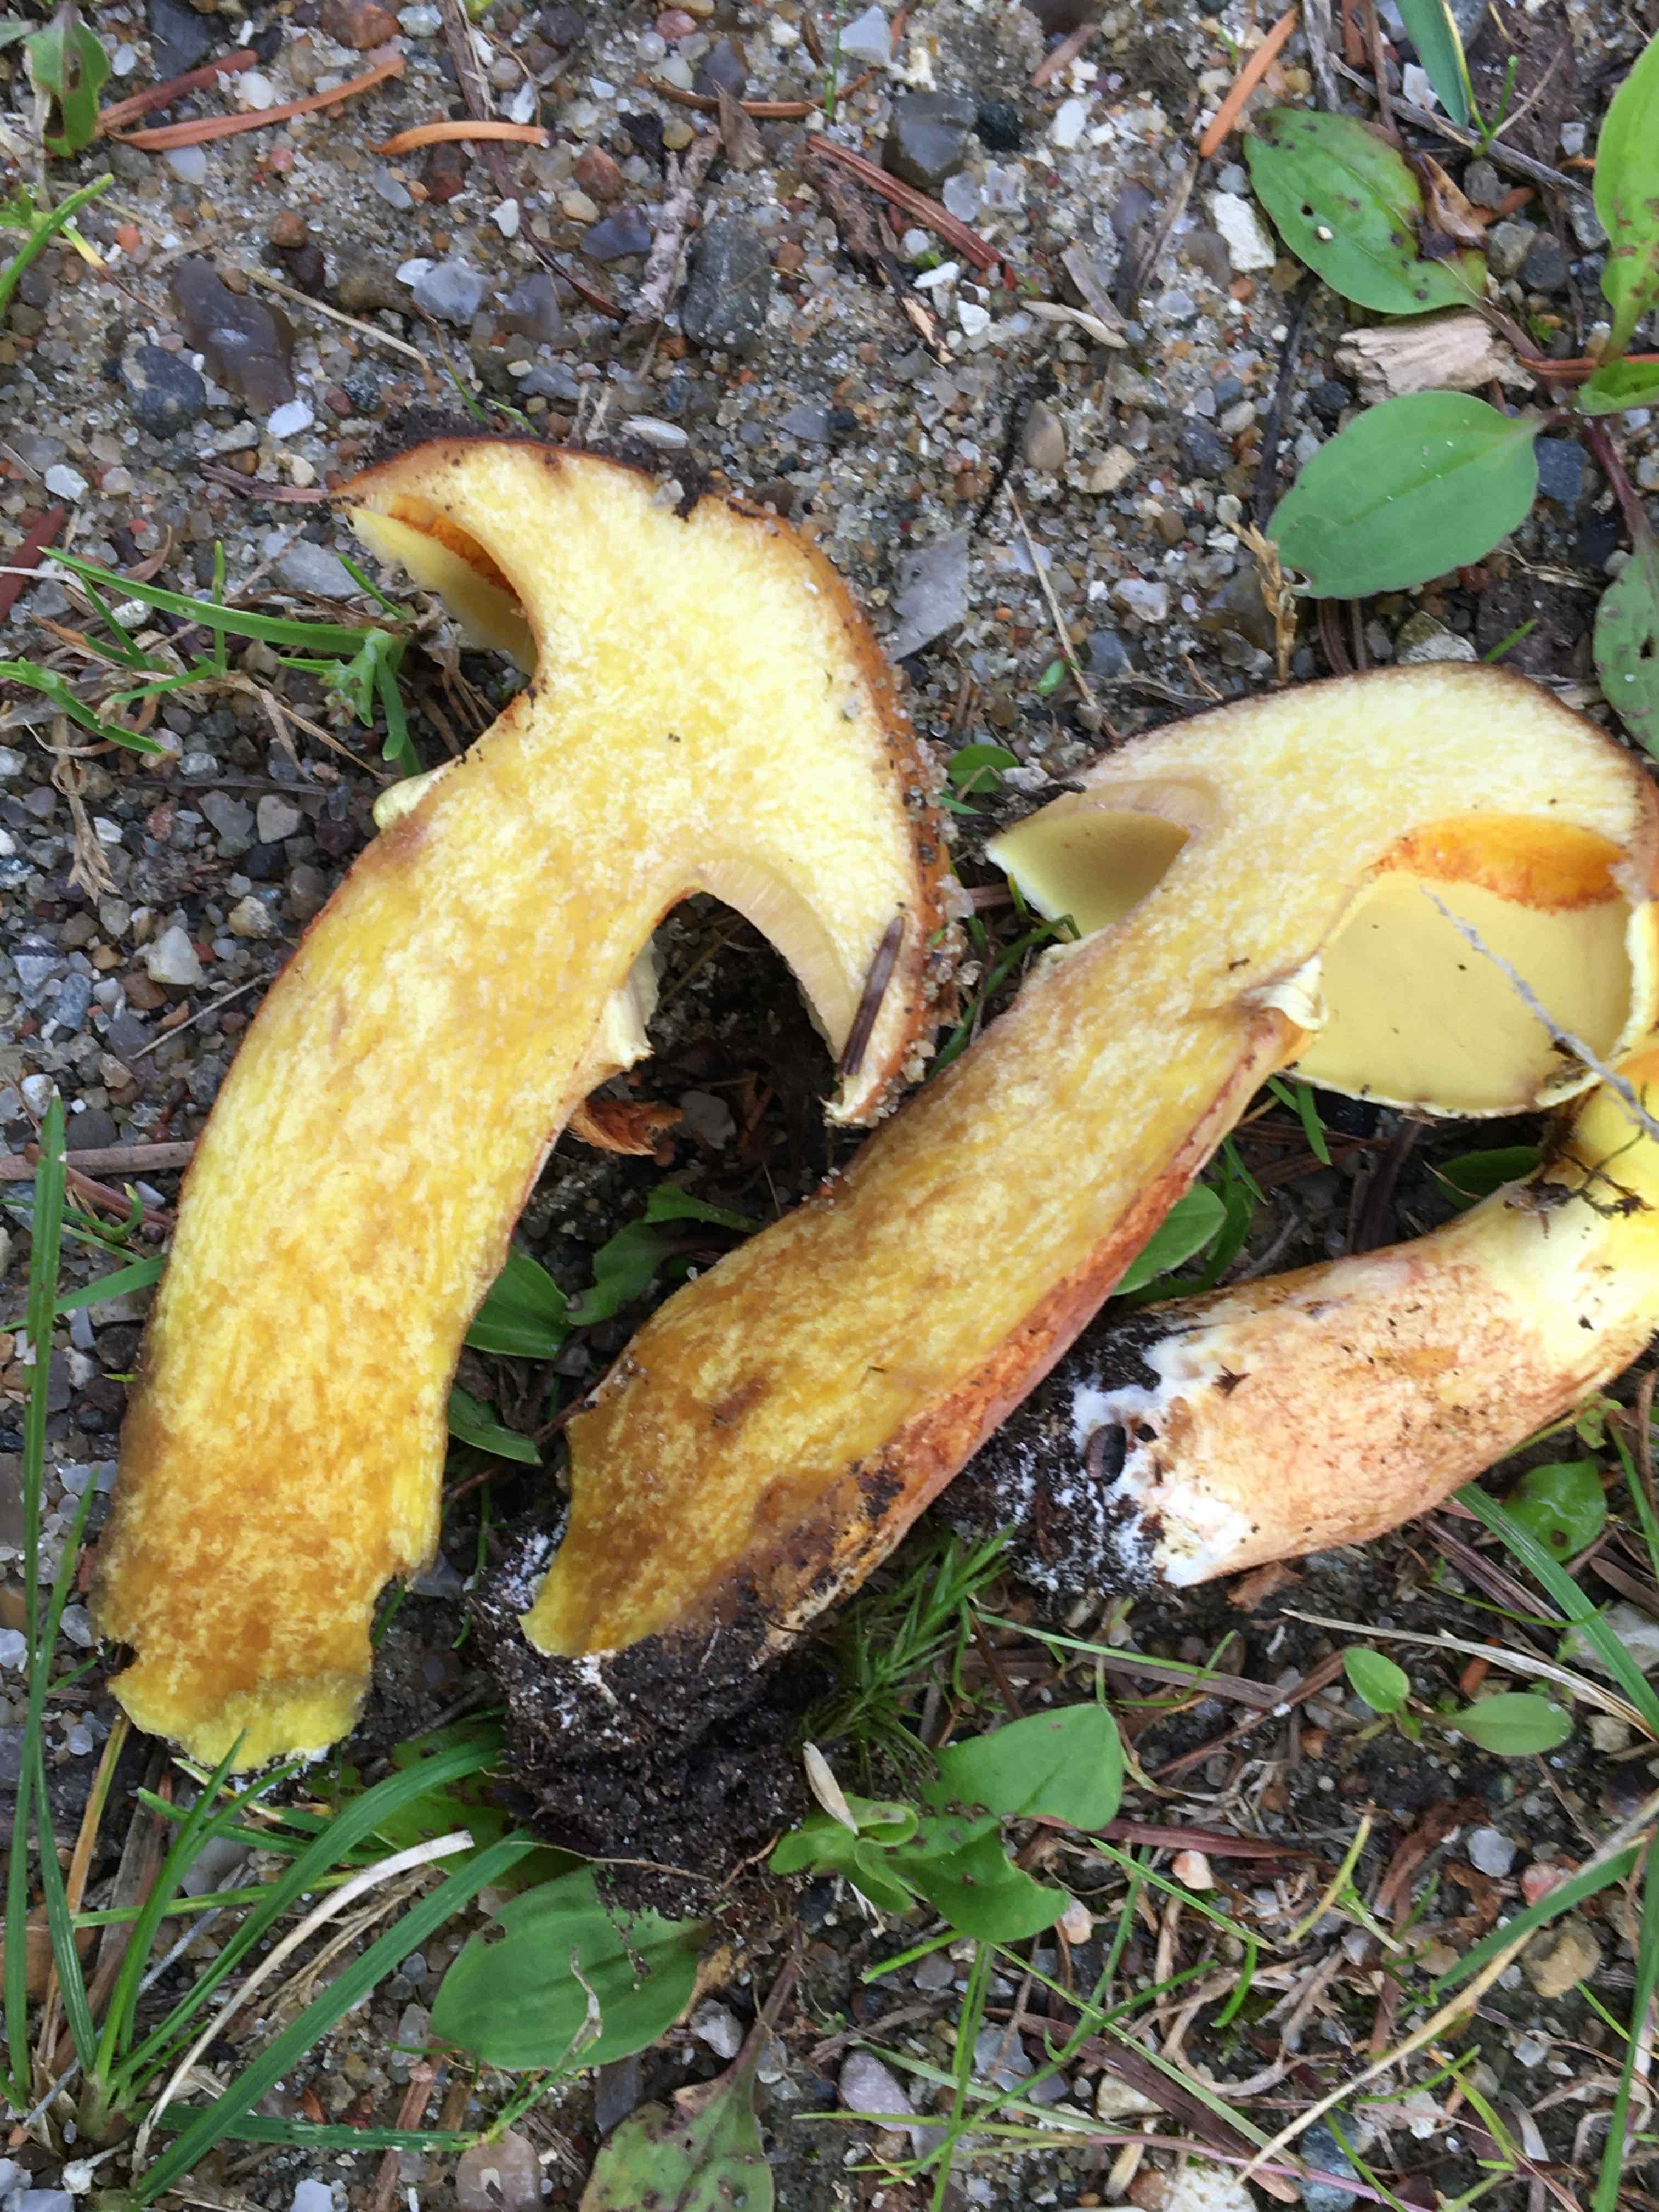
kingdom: Fungi
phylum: Basidiomycota
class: Agaricomycetes
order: Boletales
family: Suillaceae
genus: Suillus
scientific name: Suillus grevillei
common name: lærke-slimrørhat
